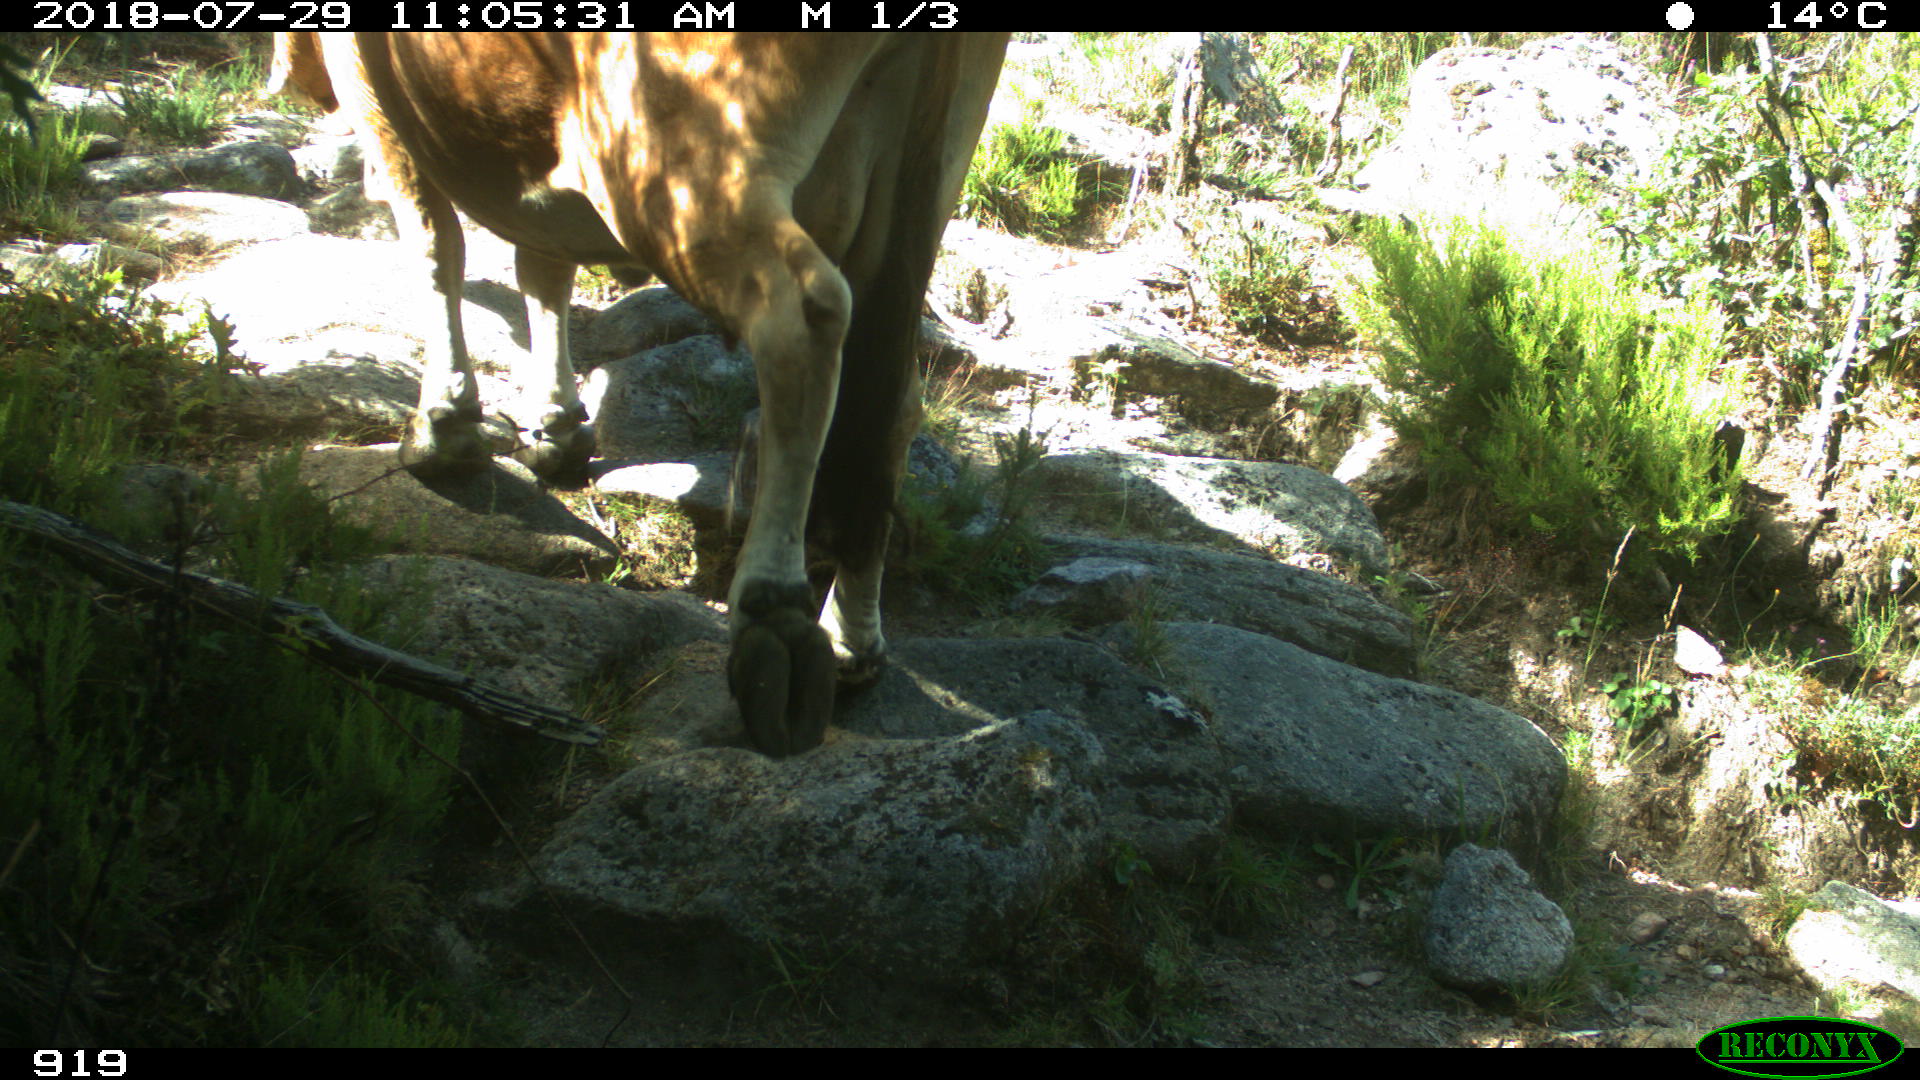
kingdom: Animalia
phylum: Chordata
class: Mammalia
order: Artiodactyla
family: Bovidae
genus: Bos
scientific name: Bos taurus
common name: Domesticated cattle
